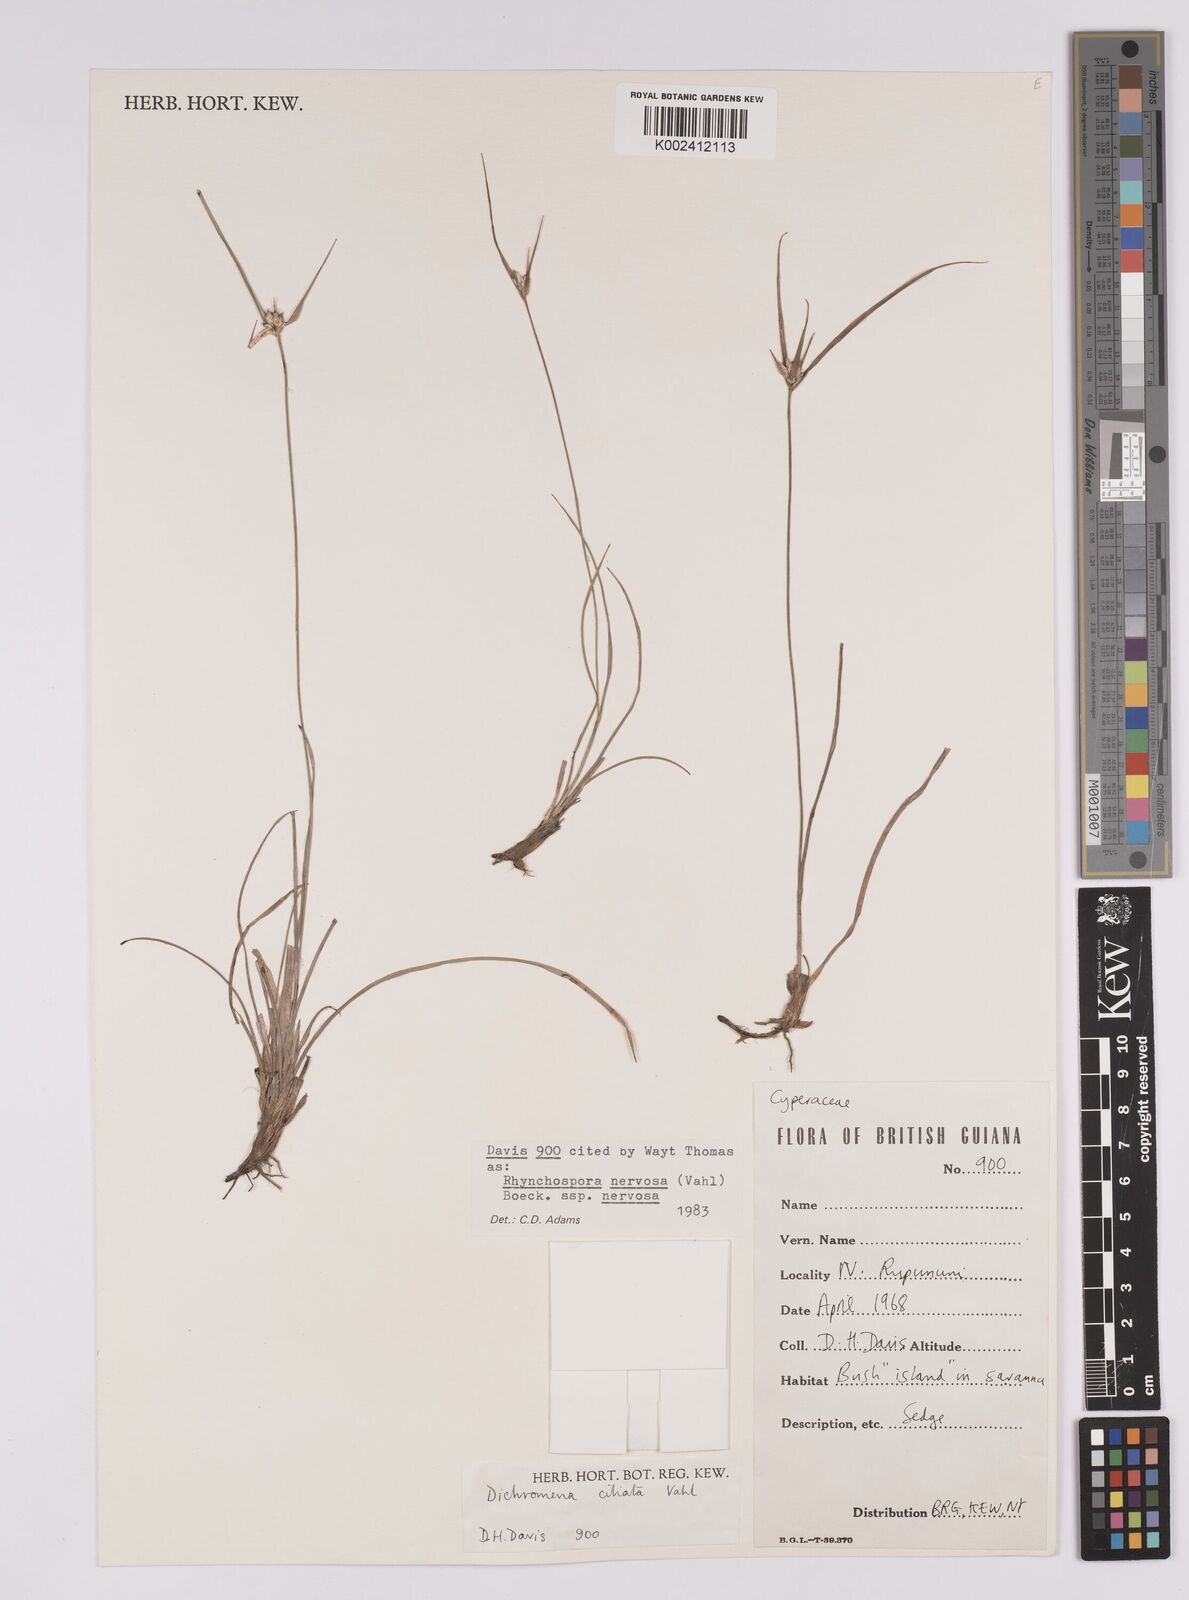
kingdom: Plantae
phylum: Tracheophyta
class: Liliopsida
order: Poales
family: Cyperaceae
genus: Rhynchospora
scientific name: Rhynchospora nervosa
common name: Star sedge
